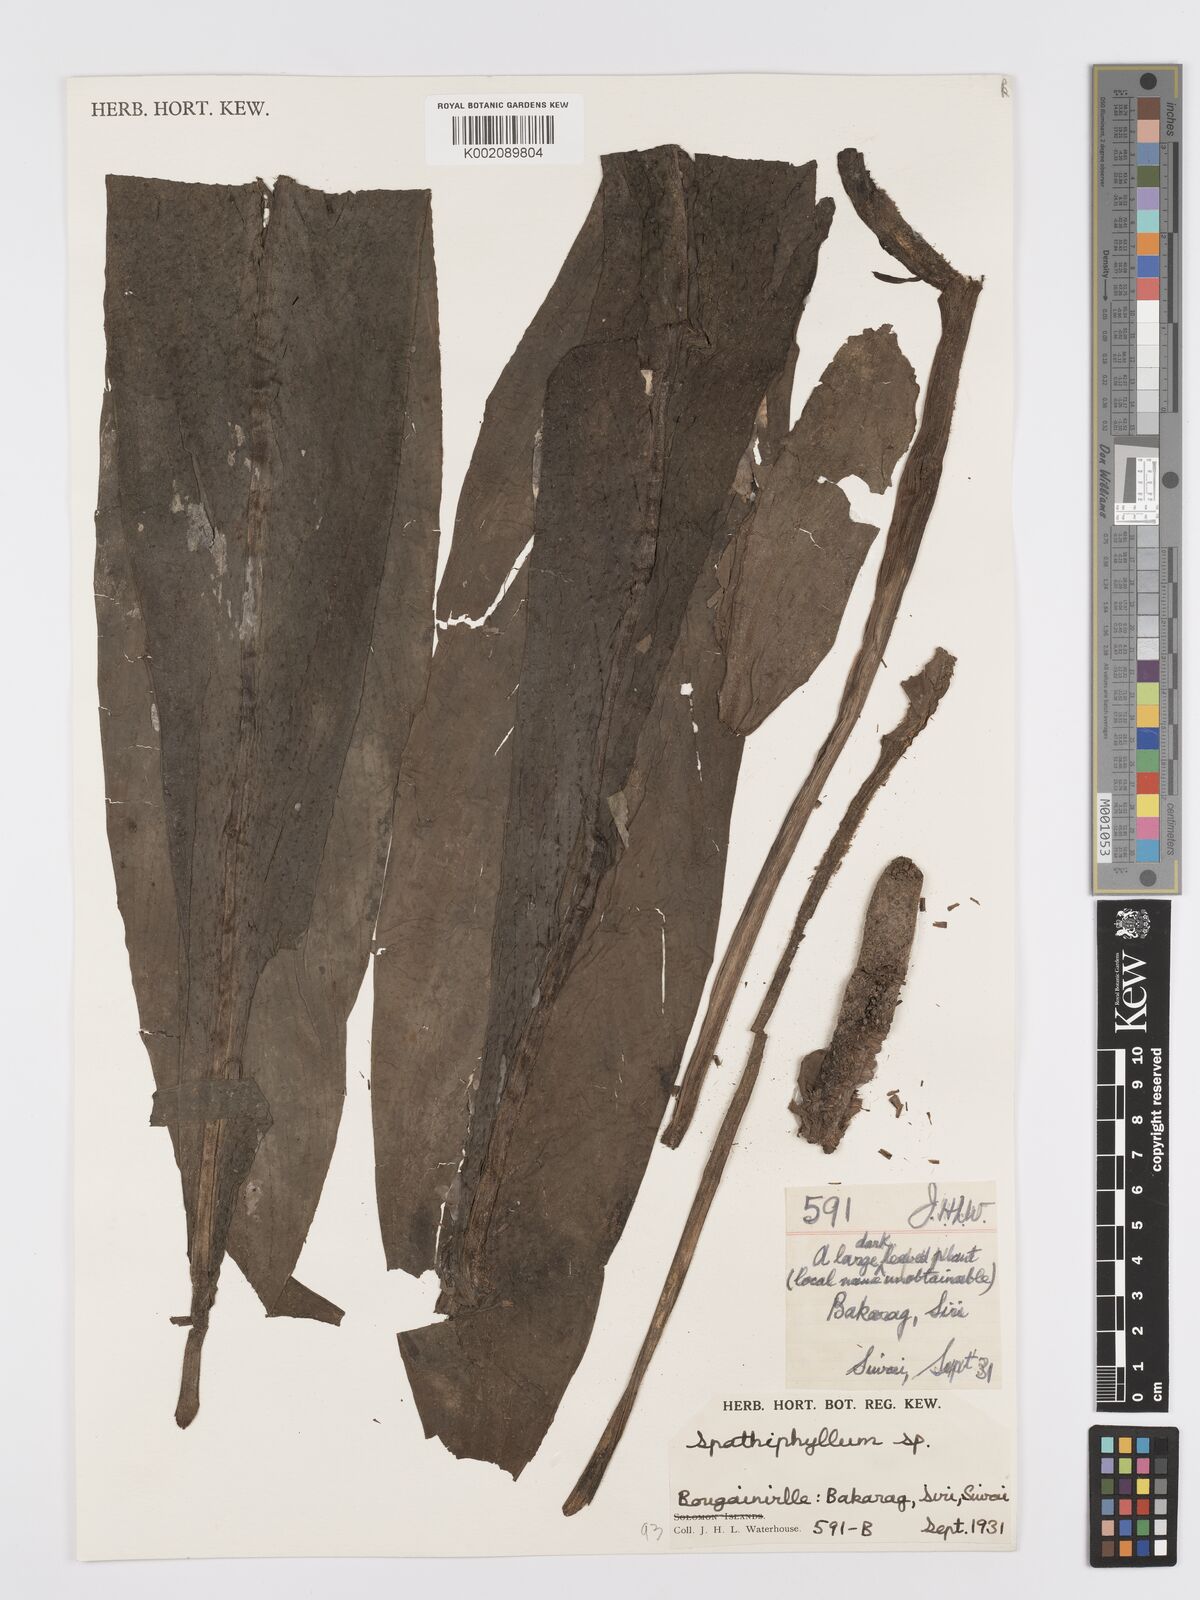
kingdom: Plantae
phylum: Tracheophyta
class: Liliopsida
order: Alismatales
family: Araceae
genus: Spathiphyllum
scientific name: Spathiphyllum solomonense
